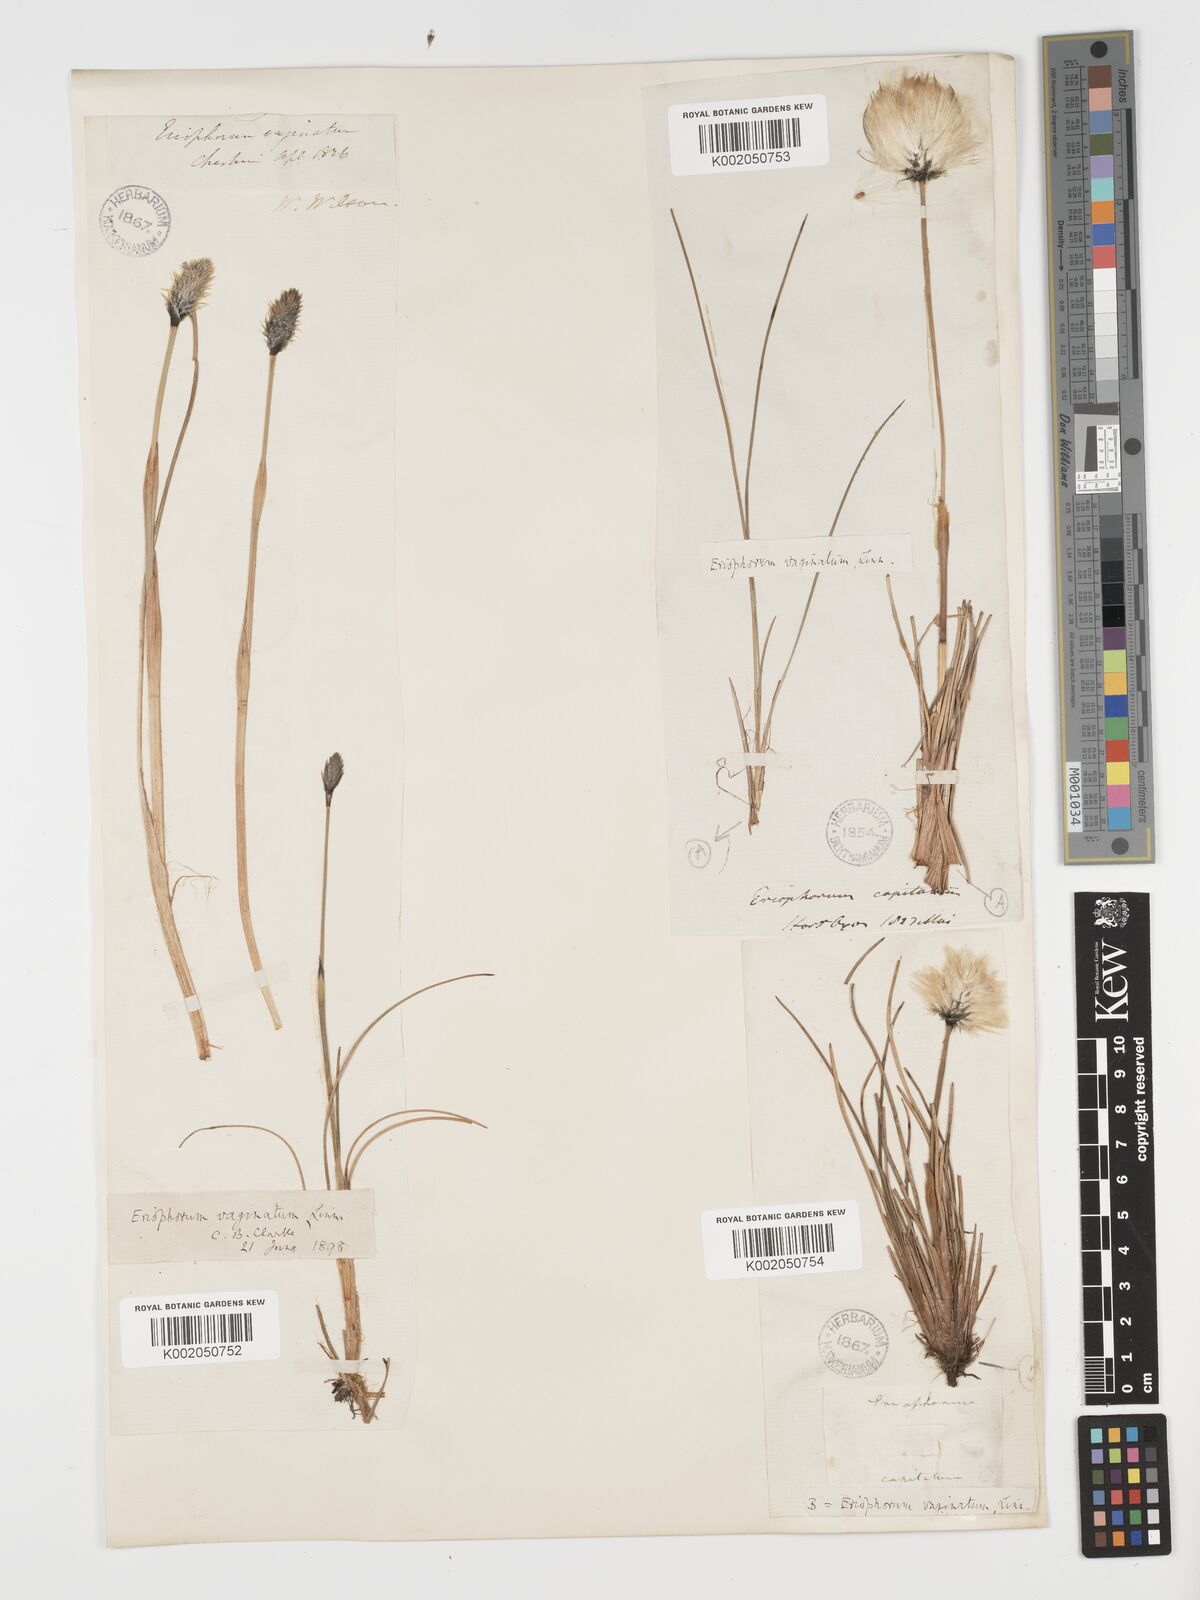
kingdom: Plantae
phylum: Tracheophyta
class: Liliopsida
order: Poales
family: Cyperaceae
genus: Eriophorum
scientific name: Eriophorum vaginatum
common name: Hare's-tail cottongrass
